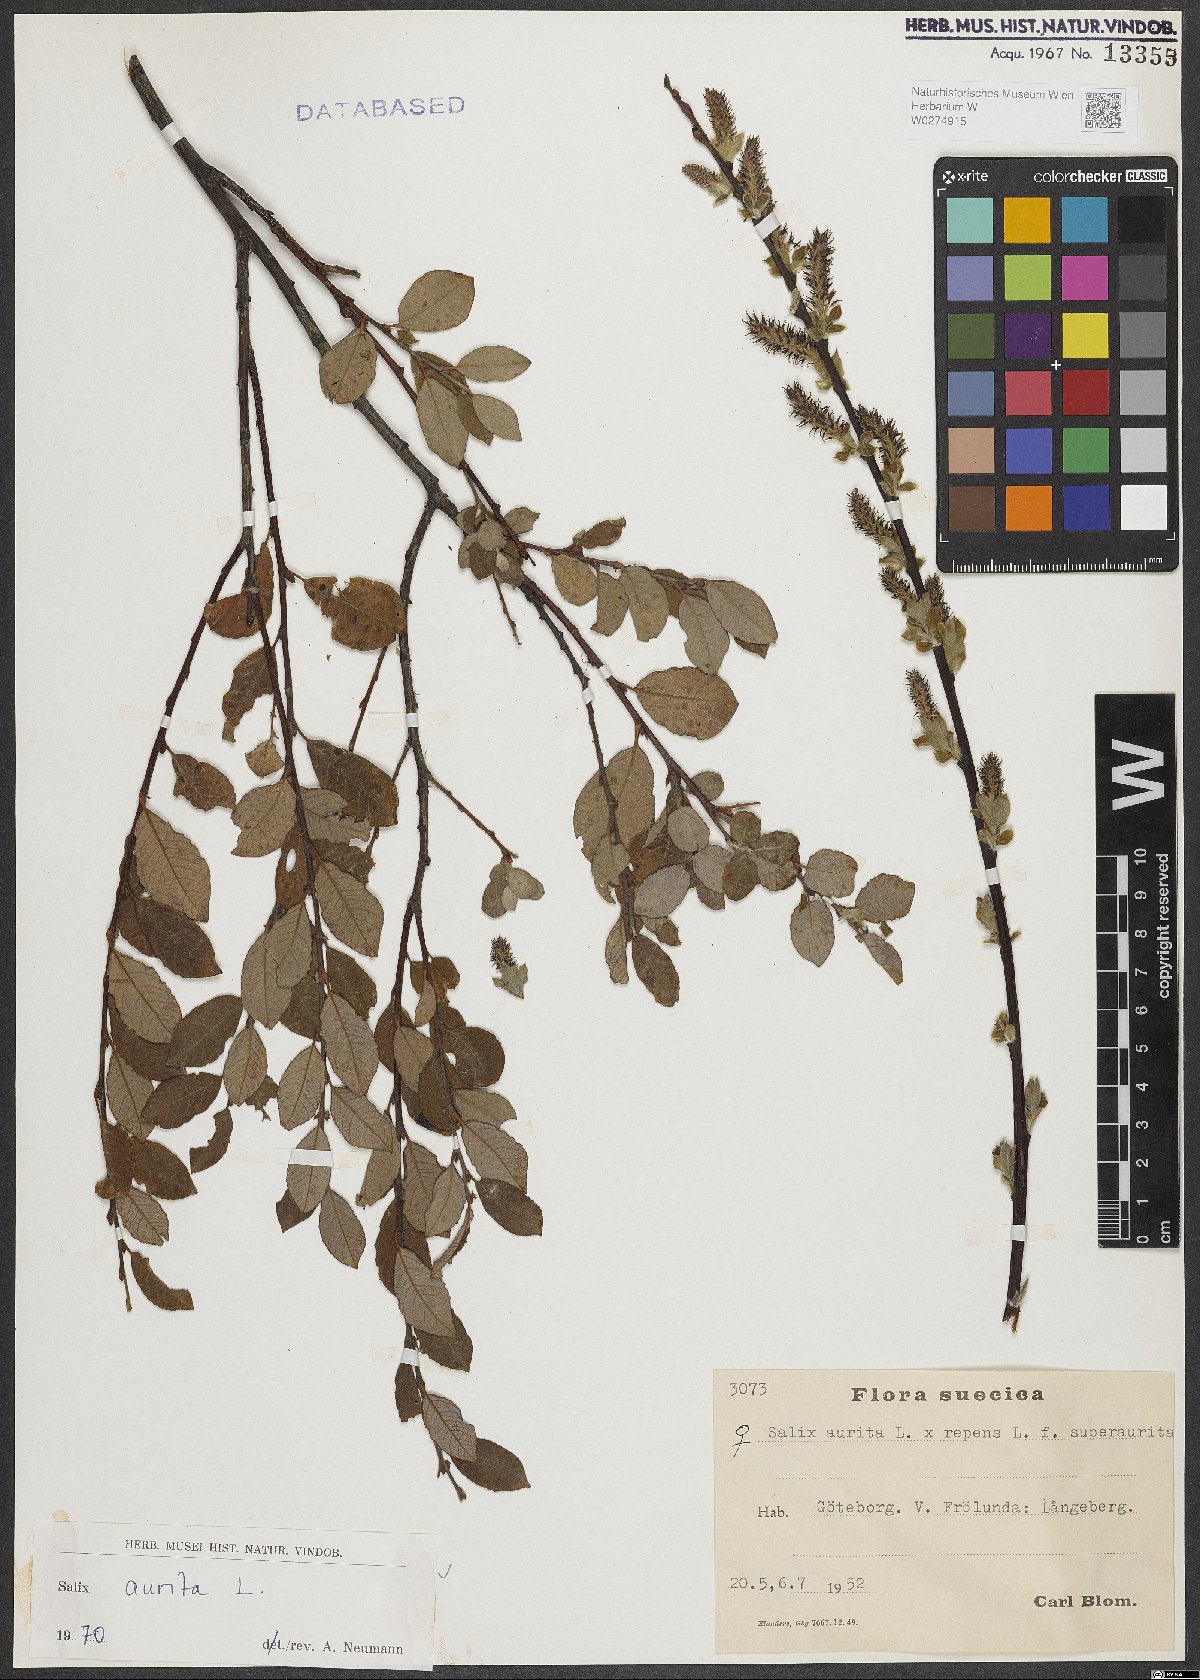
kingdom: Plantae
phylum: Tracheophyta
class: Magnoliopsida
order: Malpighiales
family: Salicaceae
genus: Salix
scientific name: Salix aurita
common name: Eared willow
